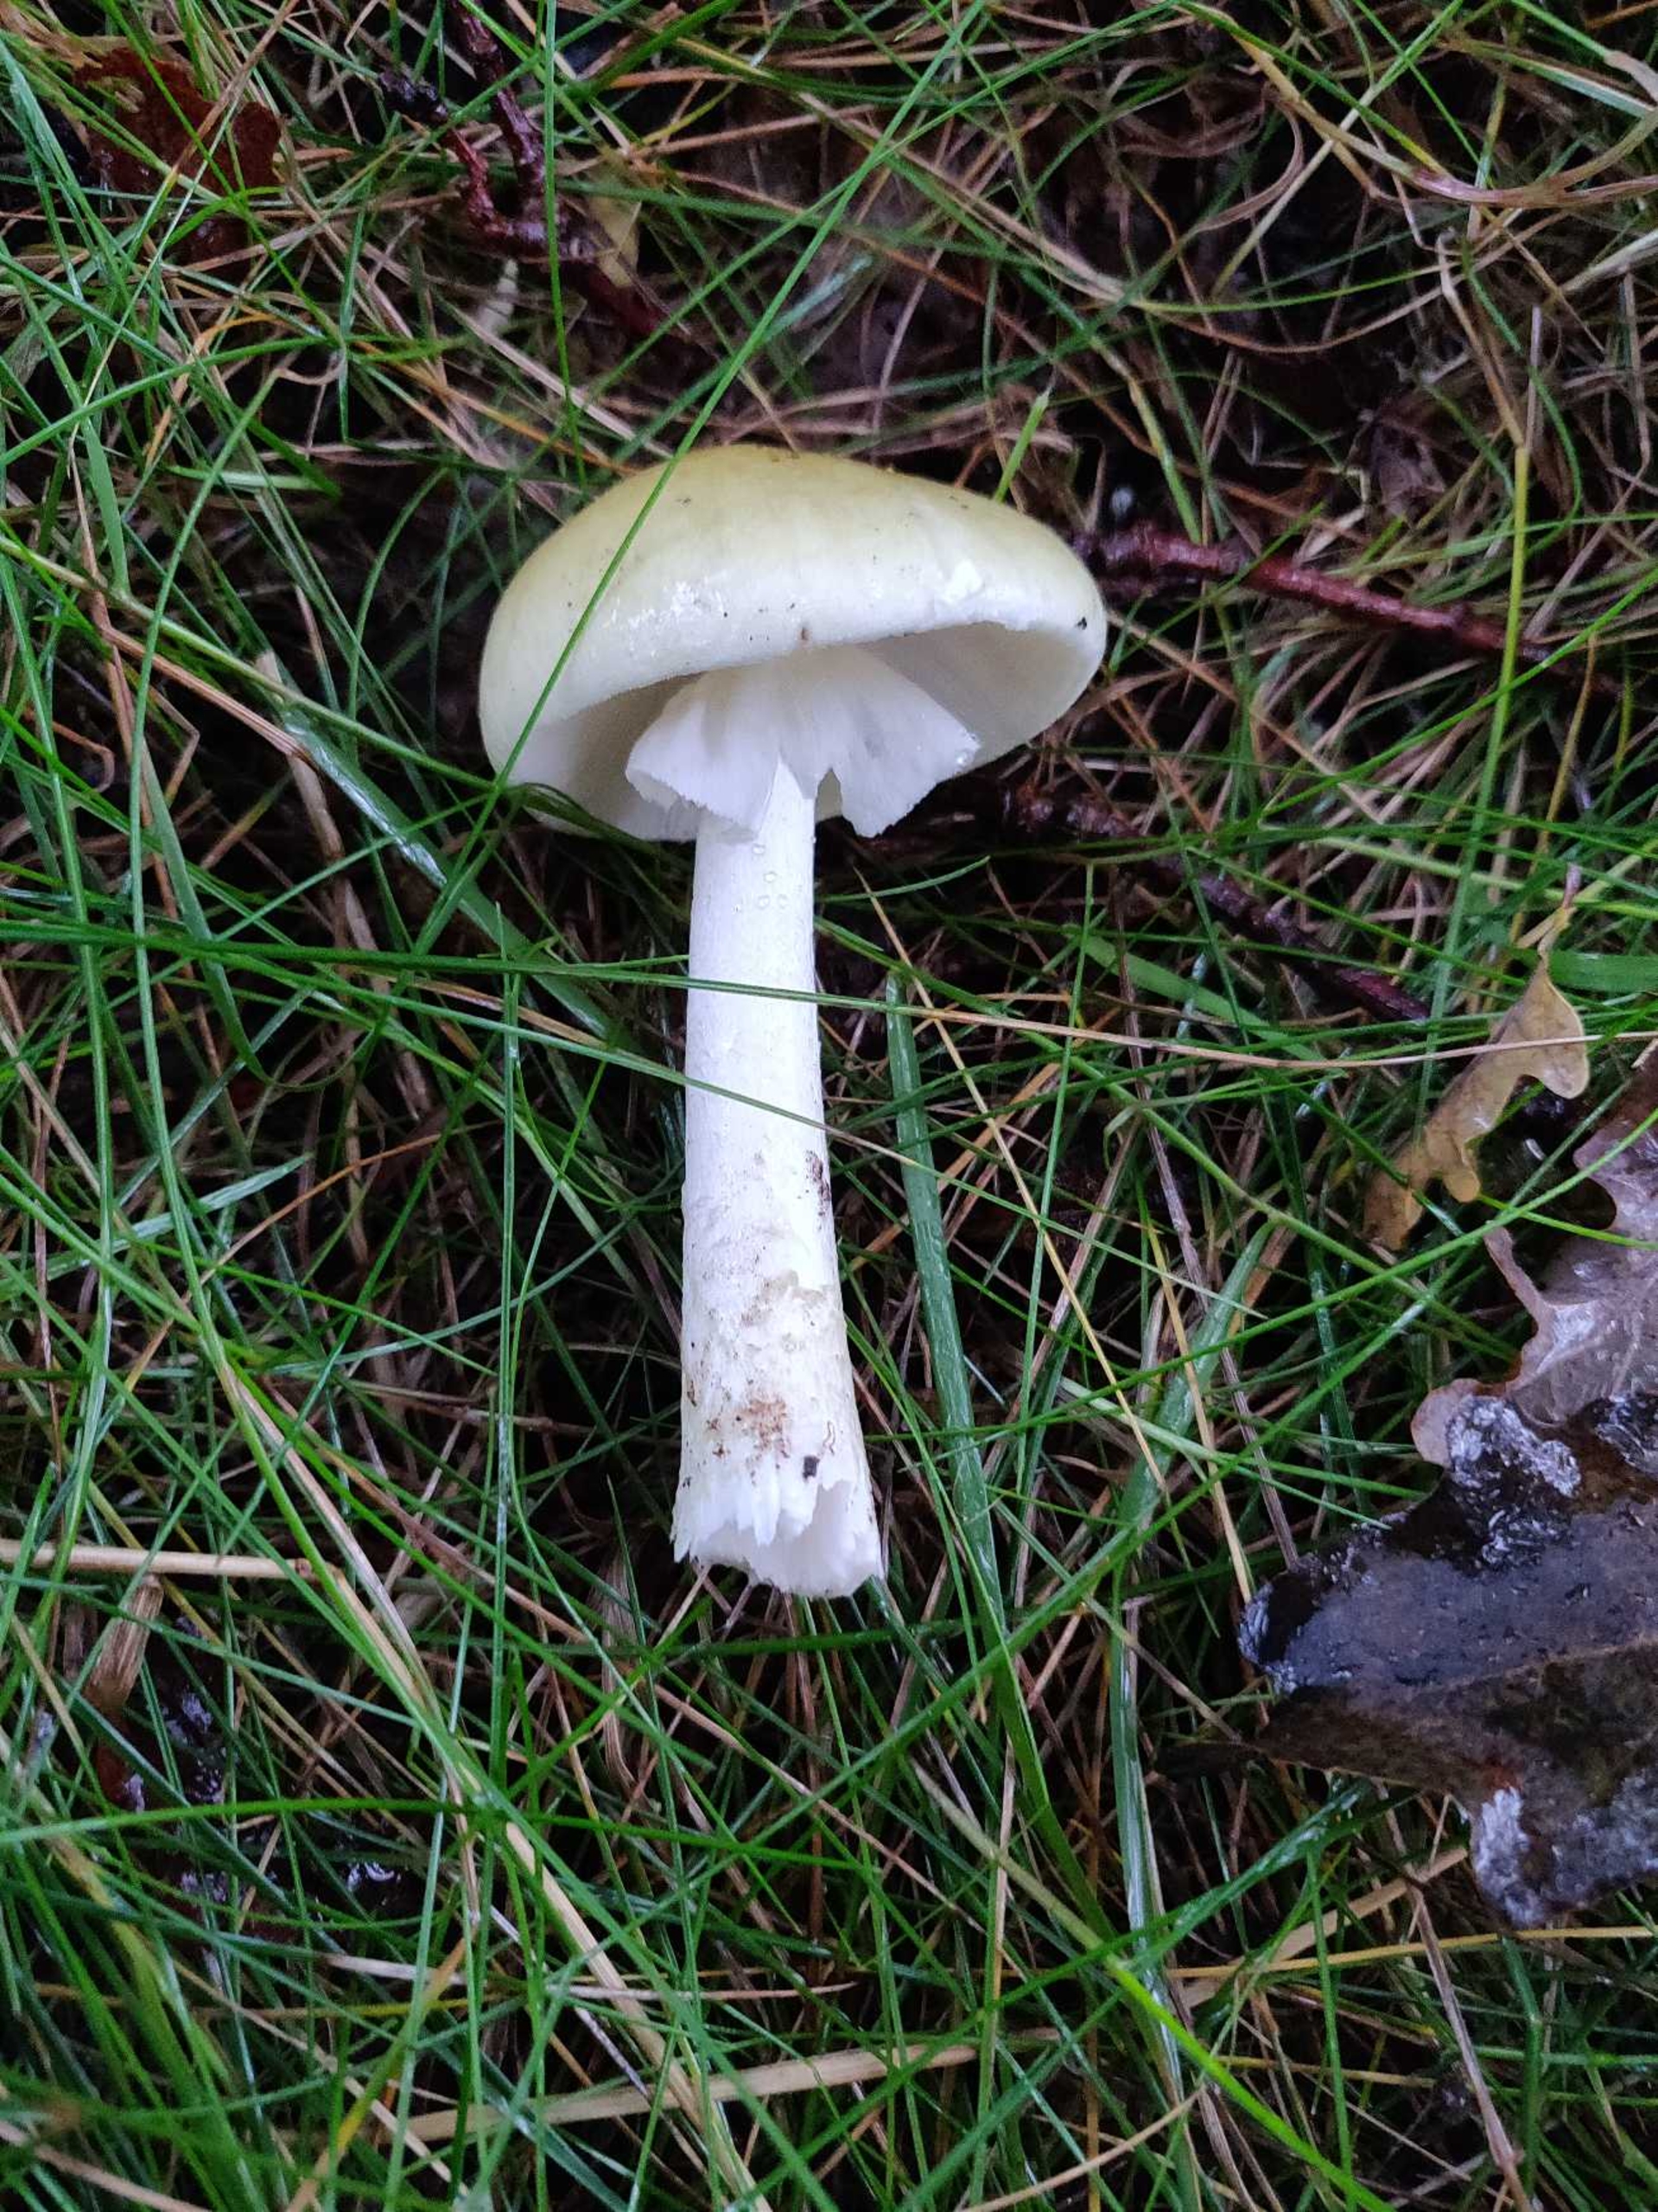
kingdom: Fungi
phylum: Basidiomycota
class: Agaricomycetes
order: Agaricales
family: Amanitaceae
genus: Amanita
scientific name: Amanita phalloides
